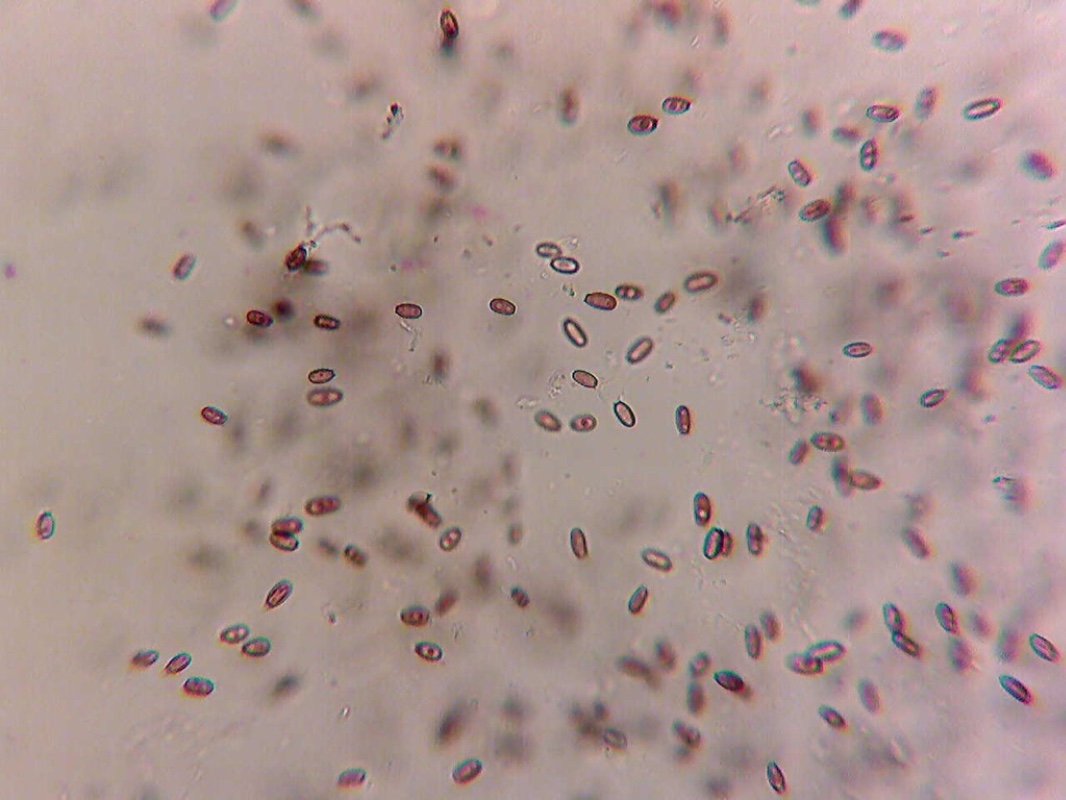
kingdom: Fungi
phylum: Basidiomycota
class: Agaricomycetes
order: Boletales
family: Paxillaceae
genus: Melanogaster
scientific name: Melanogaster broomeanus
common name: broget slimtrøffel
